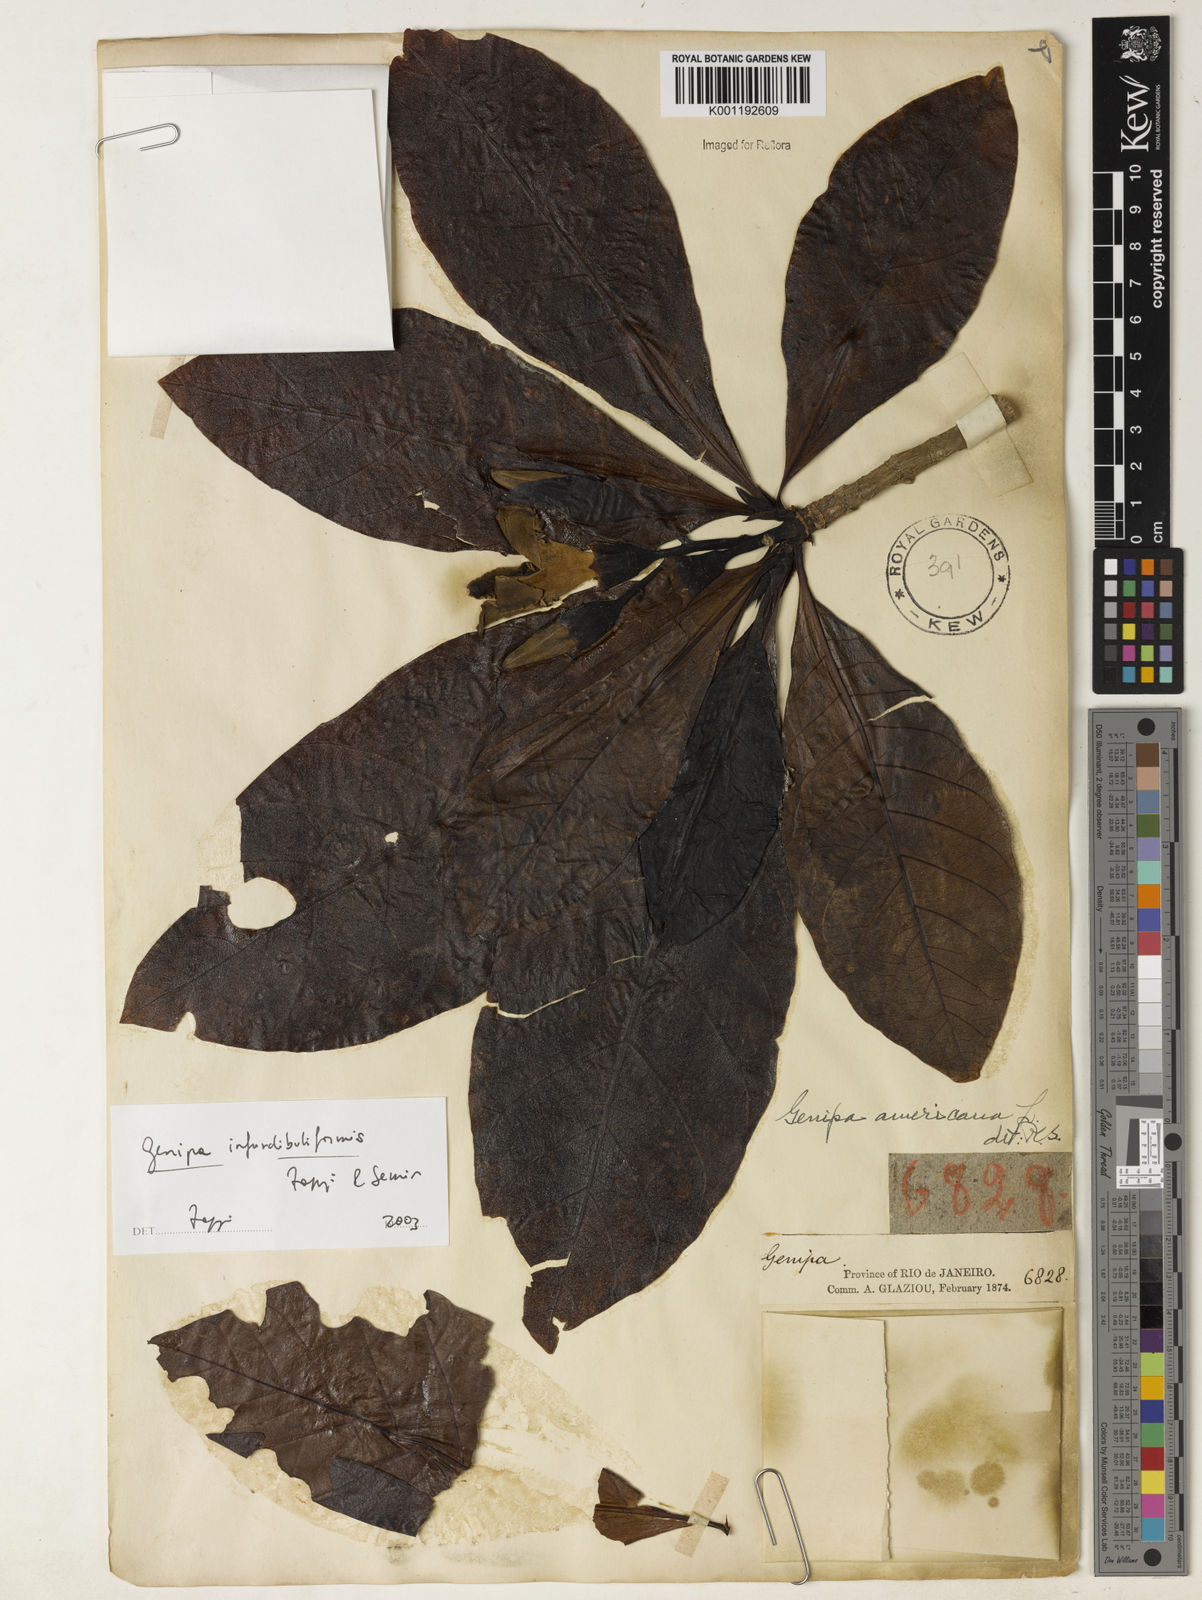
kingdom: Plantae
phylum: Tracheophyta
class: Magnoliopsida
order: Gentianales
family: Rubiaceae
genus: Genipa
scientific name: Genipa
